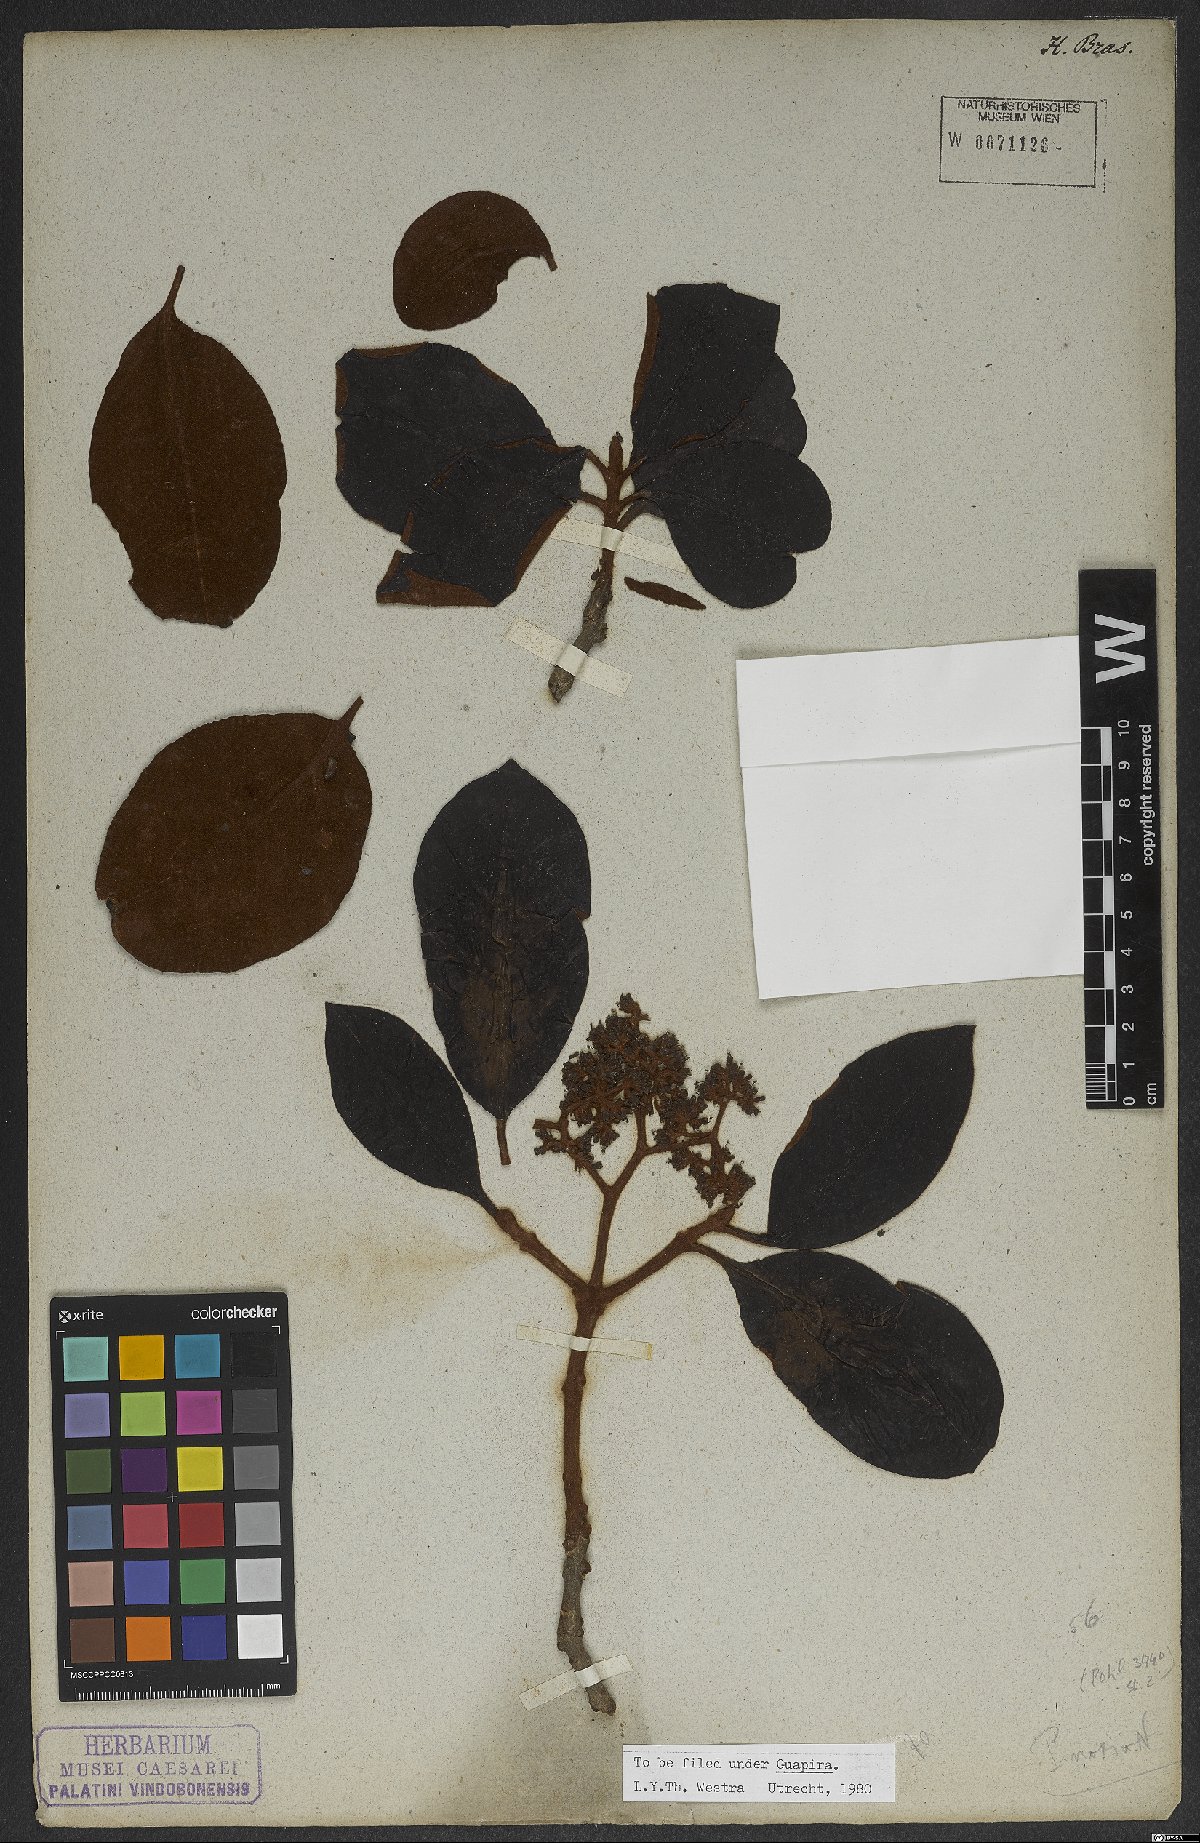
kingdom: Plantae
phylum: Tracheophyta
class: Magnoliopsida
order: Caryophyllales
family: Nyctaginaceae
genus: Guapira
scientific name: Guapira
